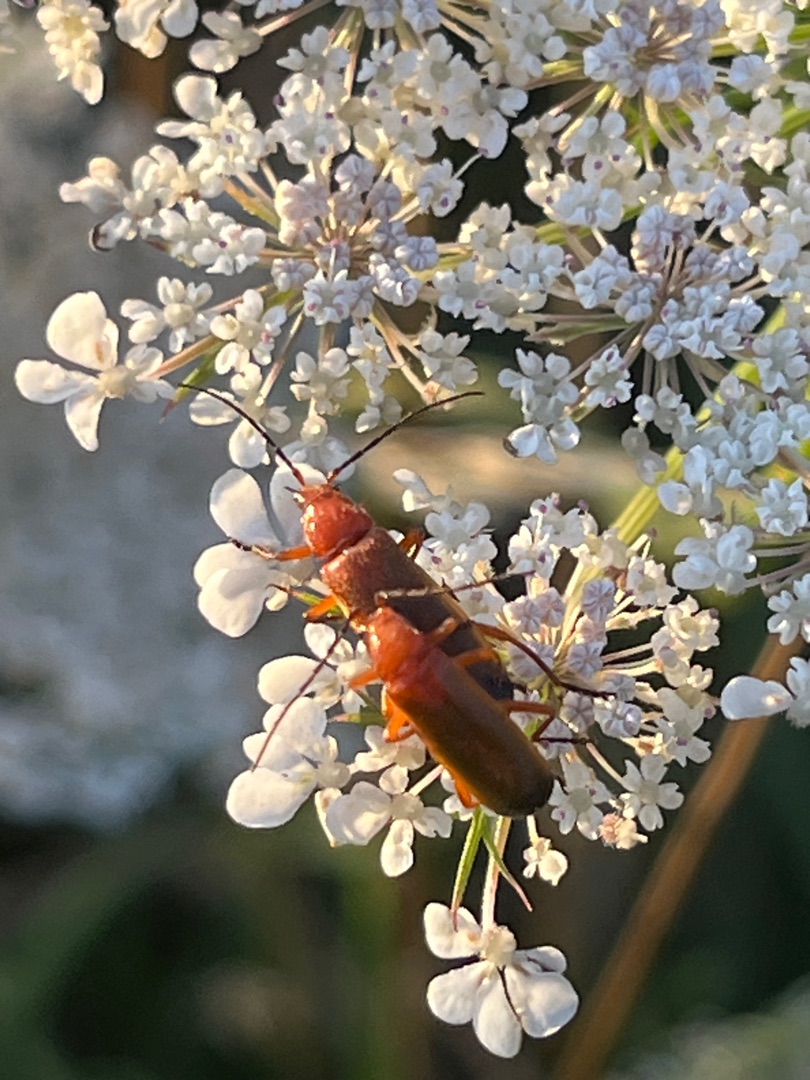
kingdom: Animalia
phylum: Arthropoda
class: Insecta
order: Coleoptera
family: Cantharidae
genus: Rhagonycha
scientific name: Rhagonycha fulva
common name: Præstebille
